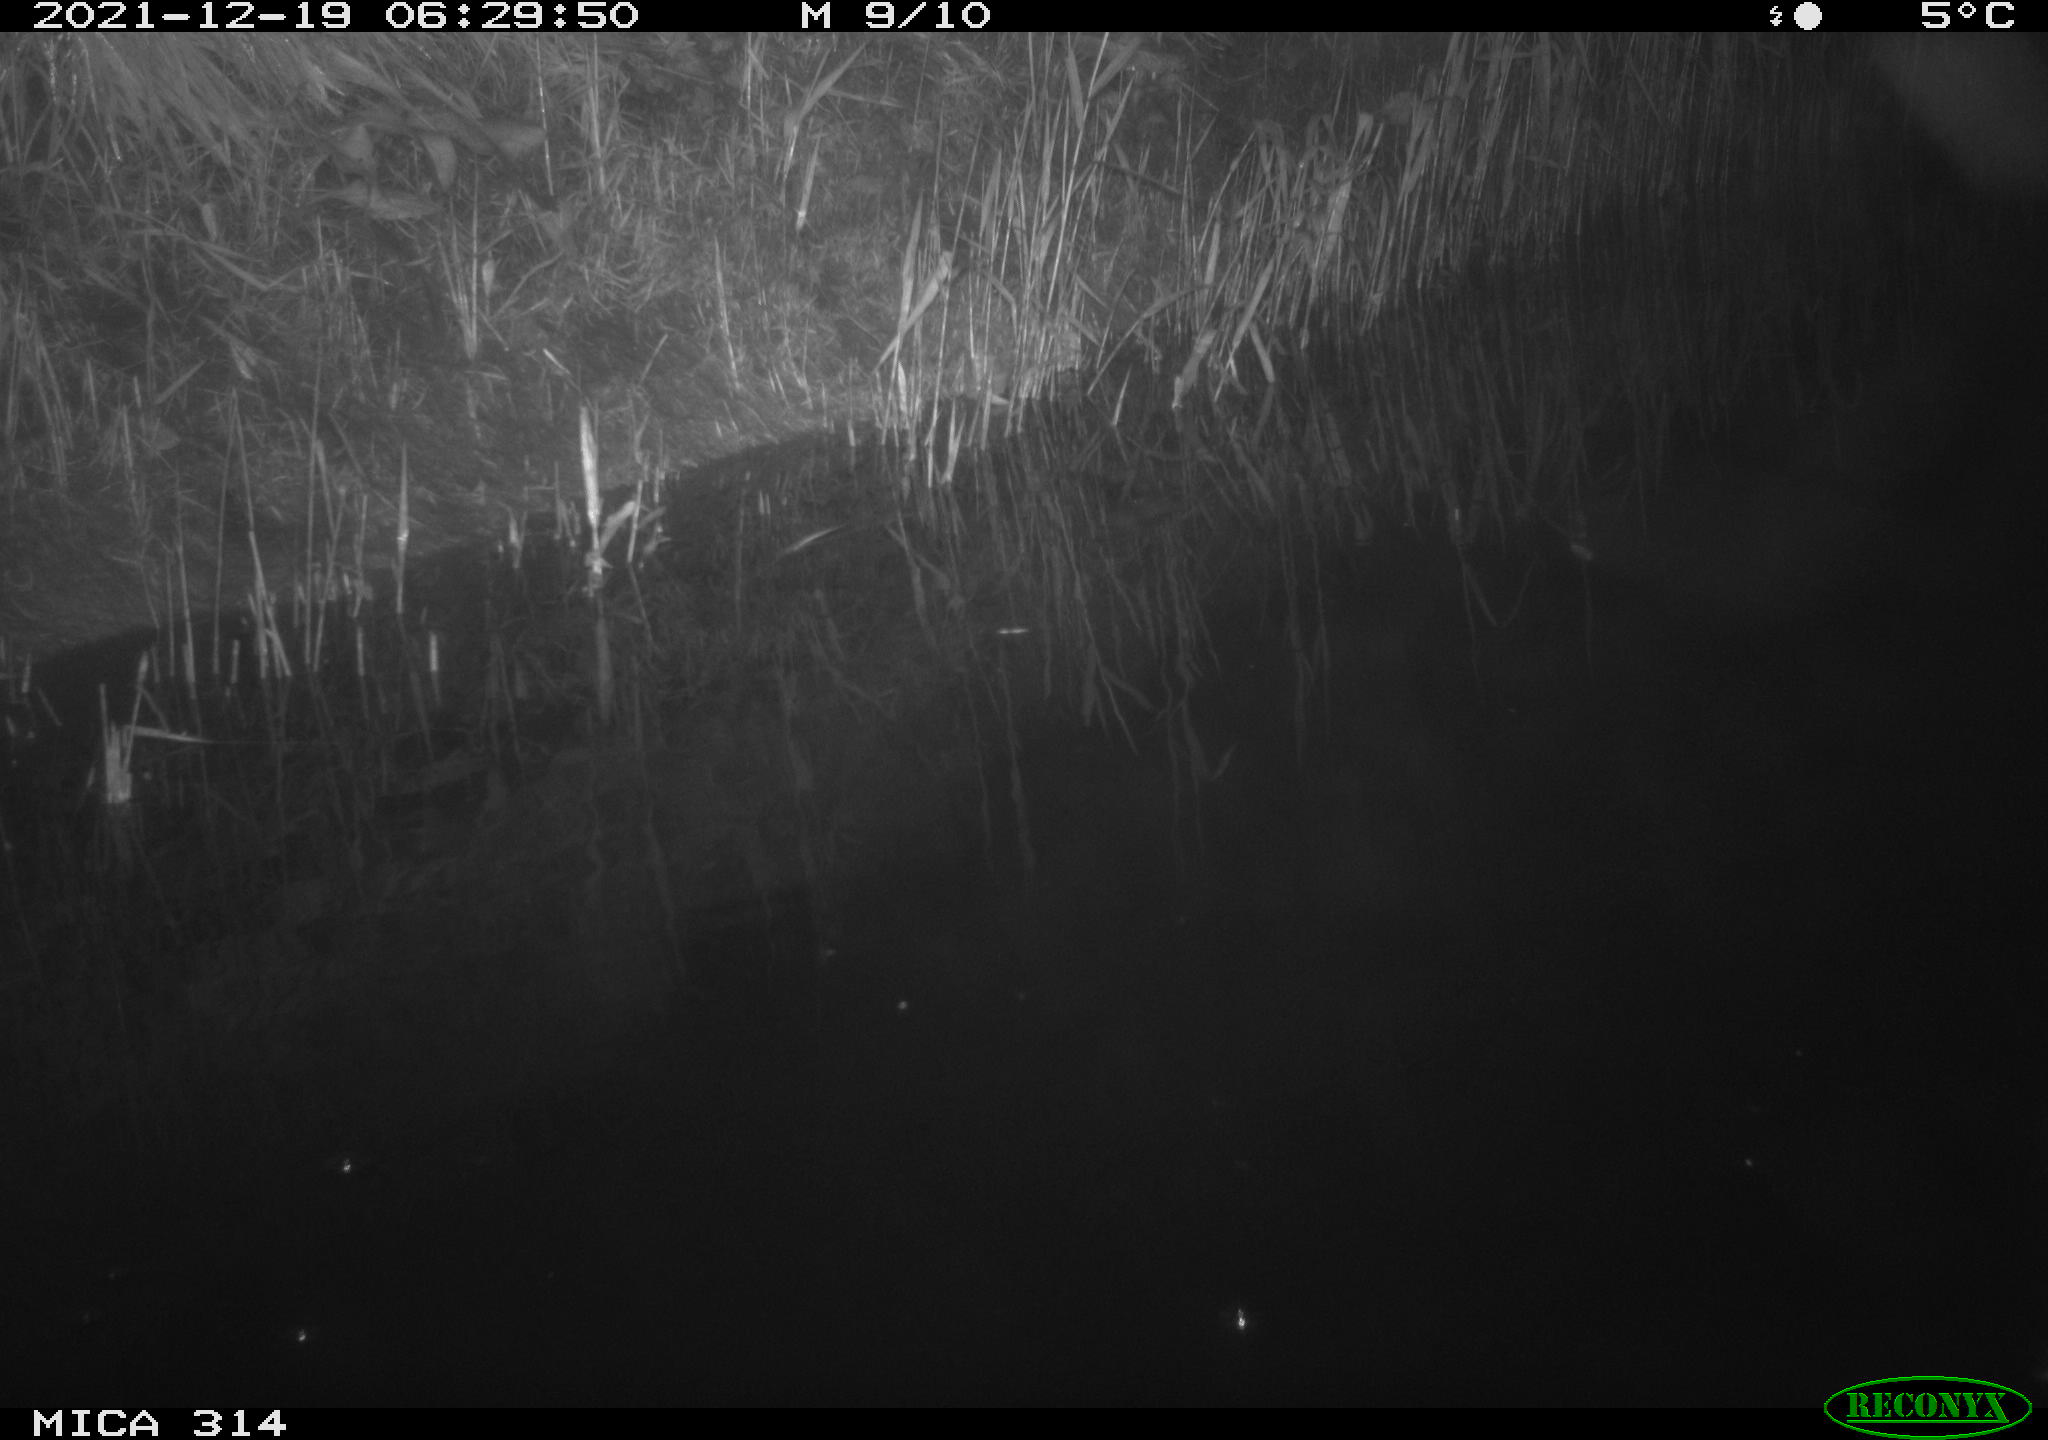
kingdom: Animalia
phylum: Chordata
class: Mammalia
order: Rodentia
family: Muridae
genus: Rattus
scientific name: Rattus norvegicus
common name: Brown rat
